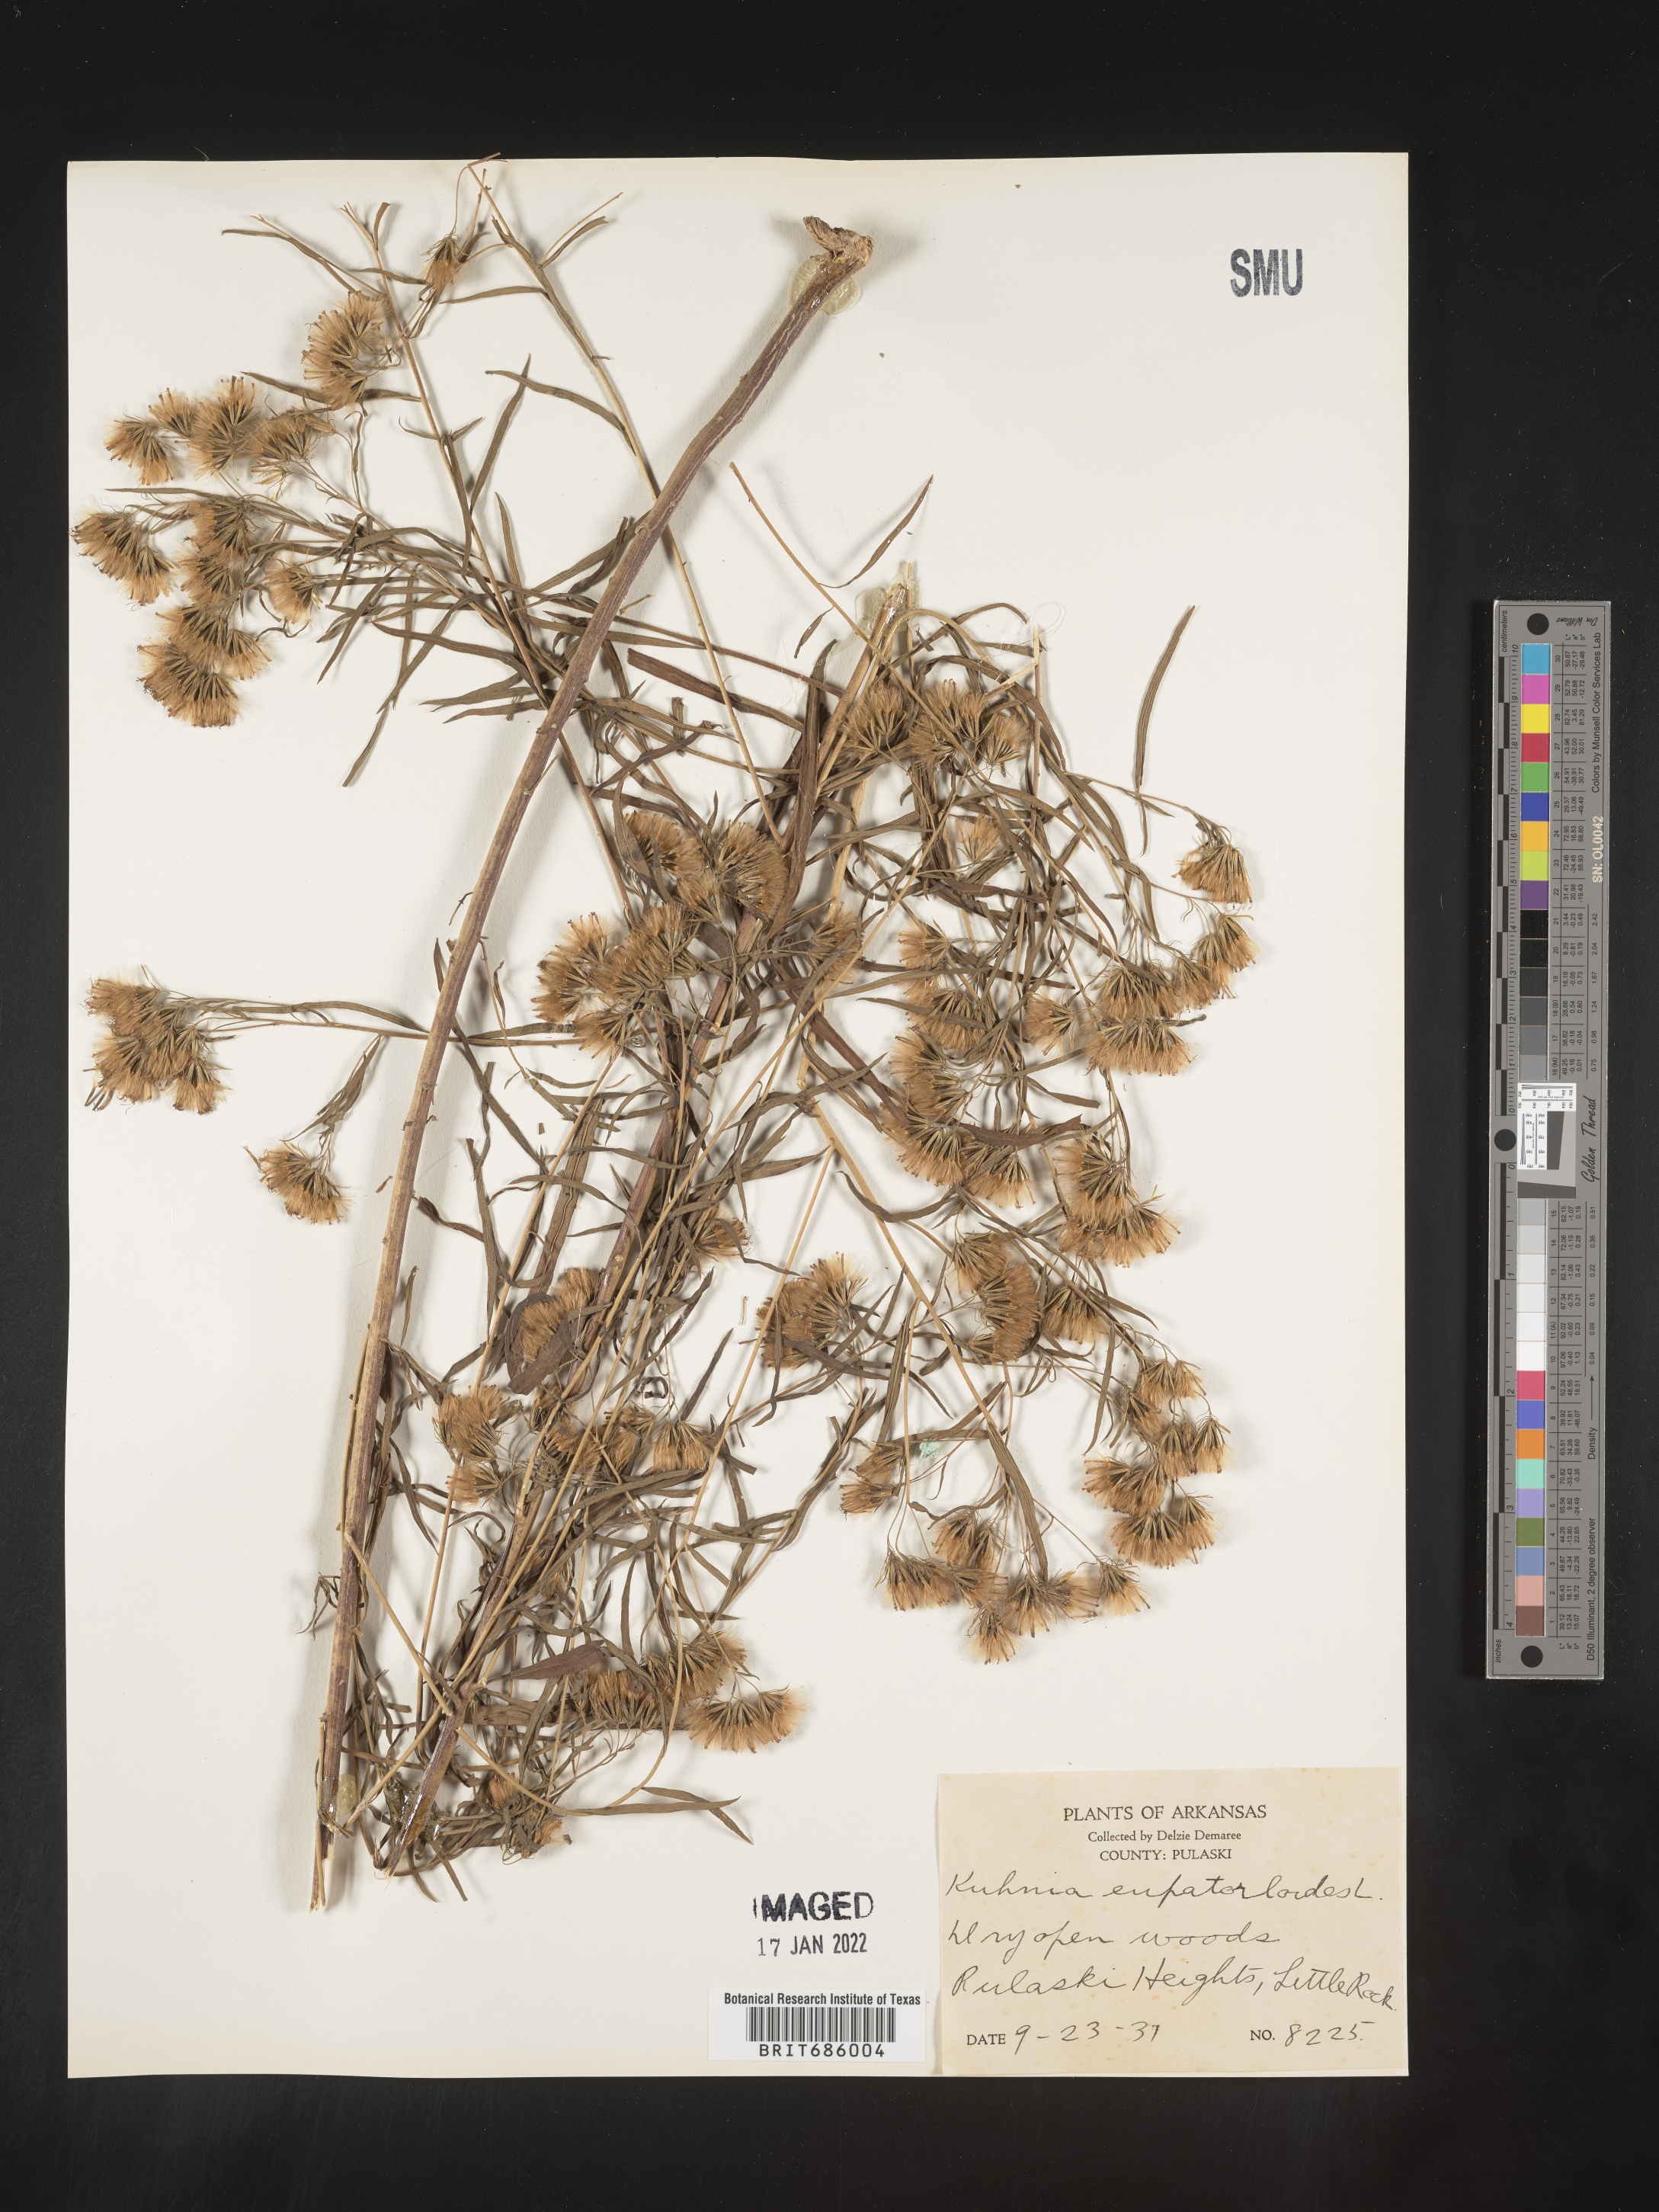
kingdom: Plantae
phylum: Tracheophyta
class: Magnoliopsida
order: Asterales
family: Asteraceae
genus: Brickellia
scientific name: Brickellia eupatorioides
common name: False boneset
